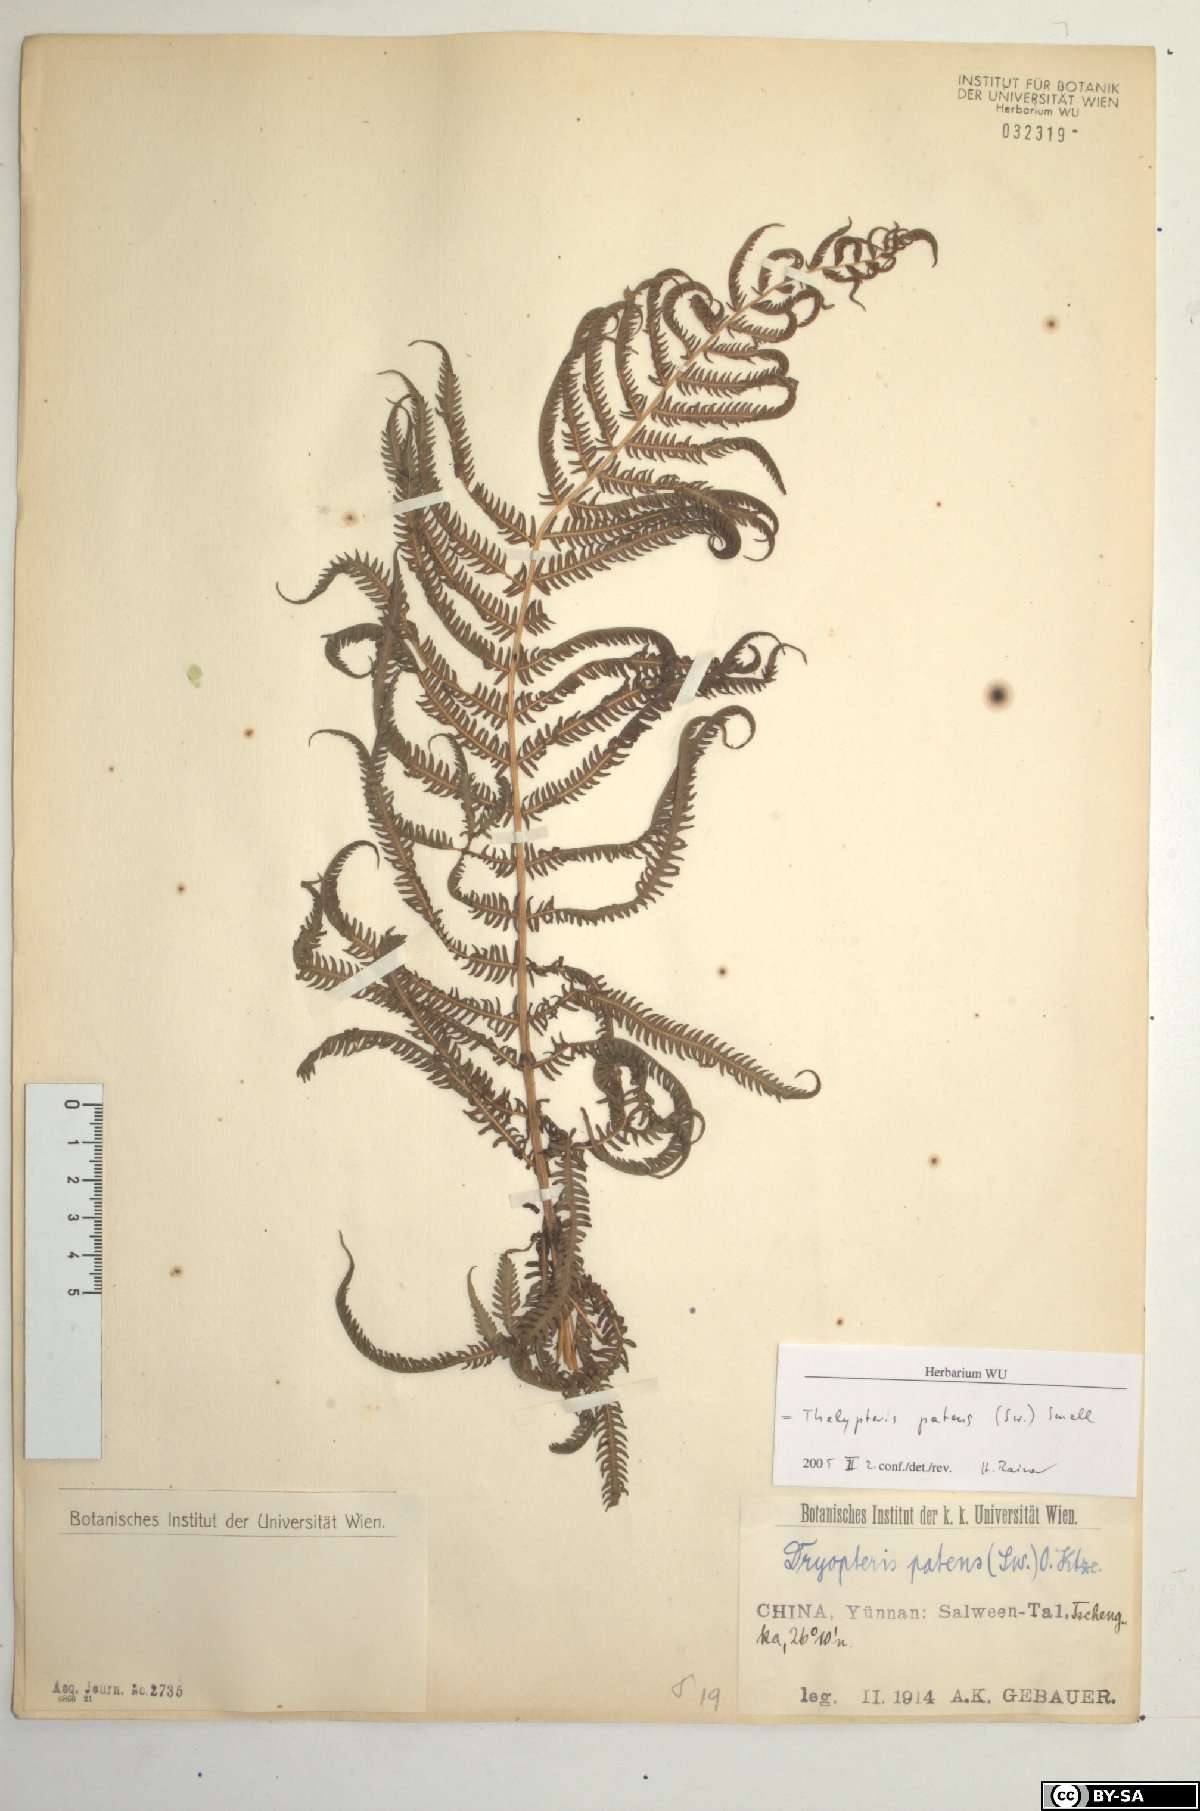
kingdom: Plantae
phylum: Tracheophyta
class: Polypodiopsida
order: Polypodiales
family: Thelypteridaceae
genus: Christella
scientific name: Christella parasitica
